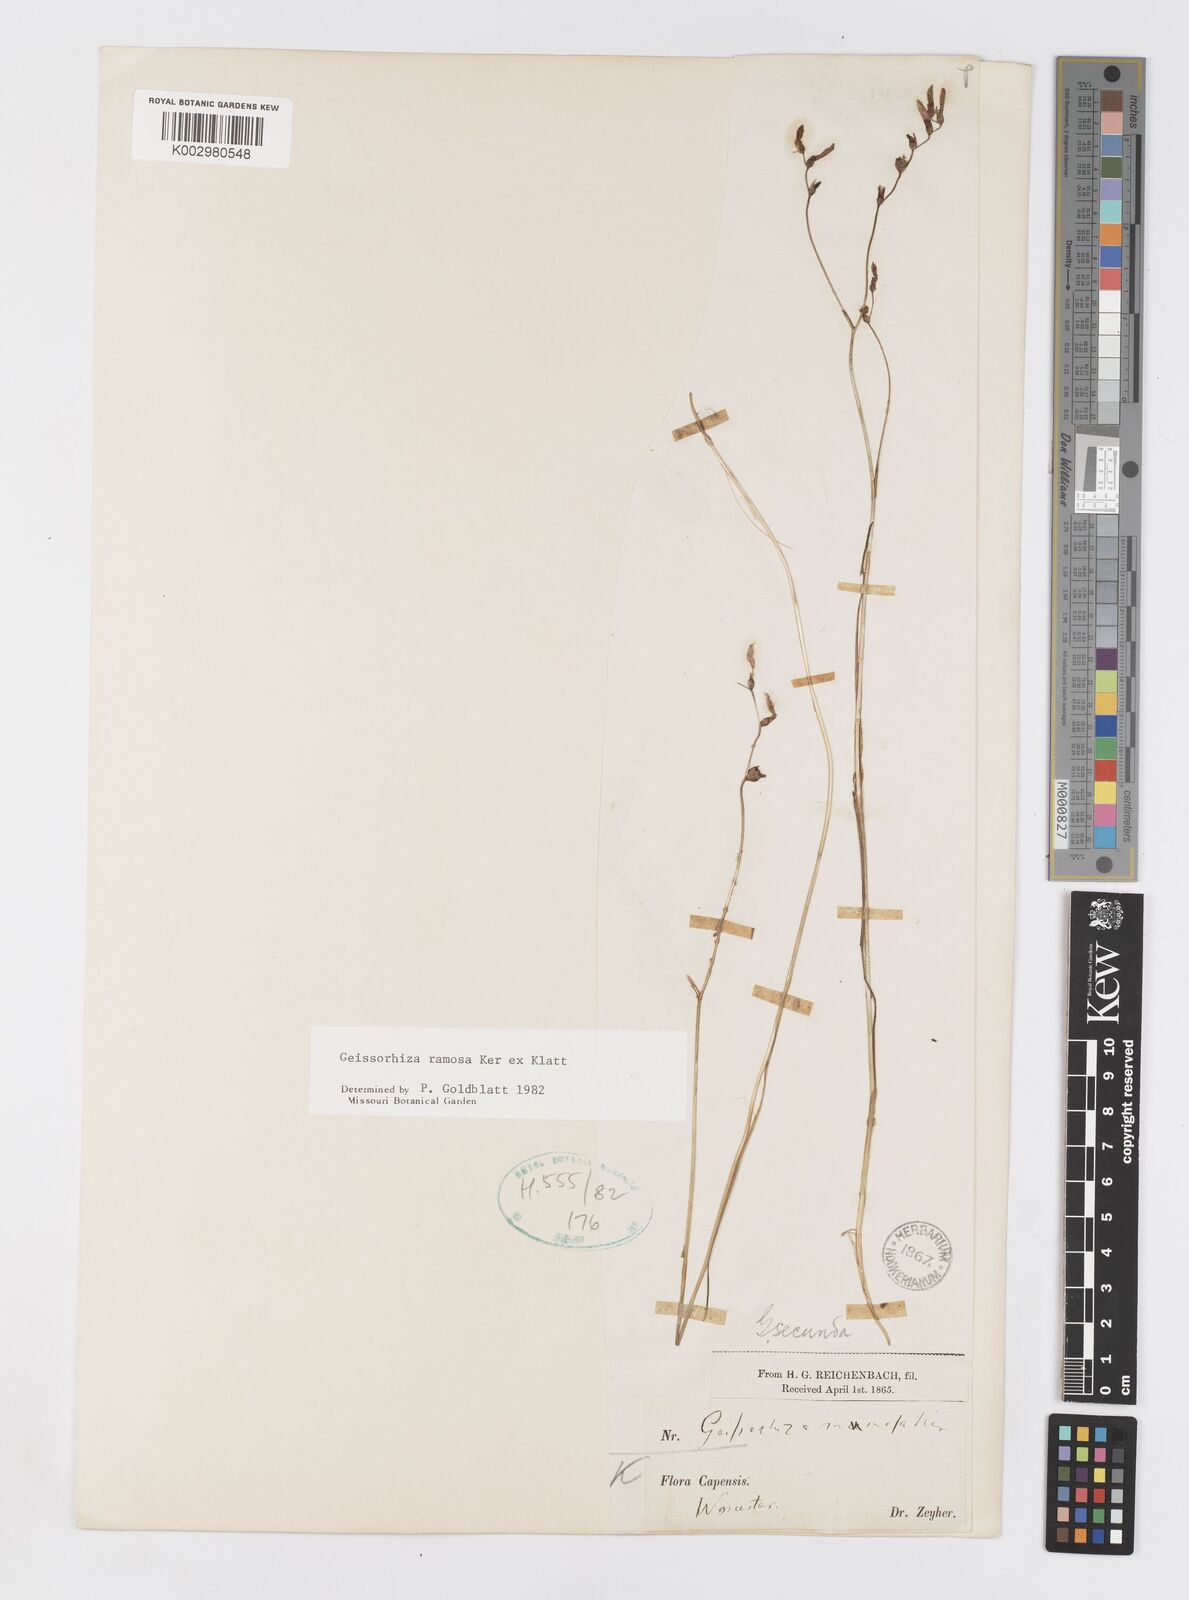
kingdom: Plantae
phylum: Tracheophyta
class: Liliopsida
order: Asparagales
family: Iridaceae
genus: Geissorhiza
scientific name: Geissorhiza ramosa
